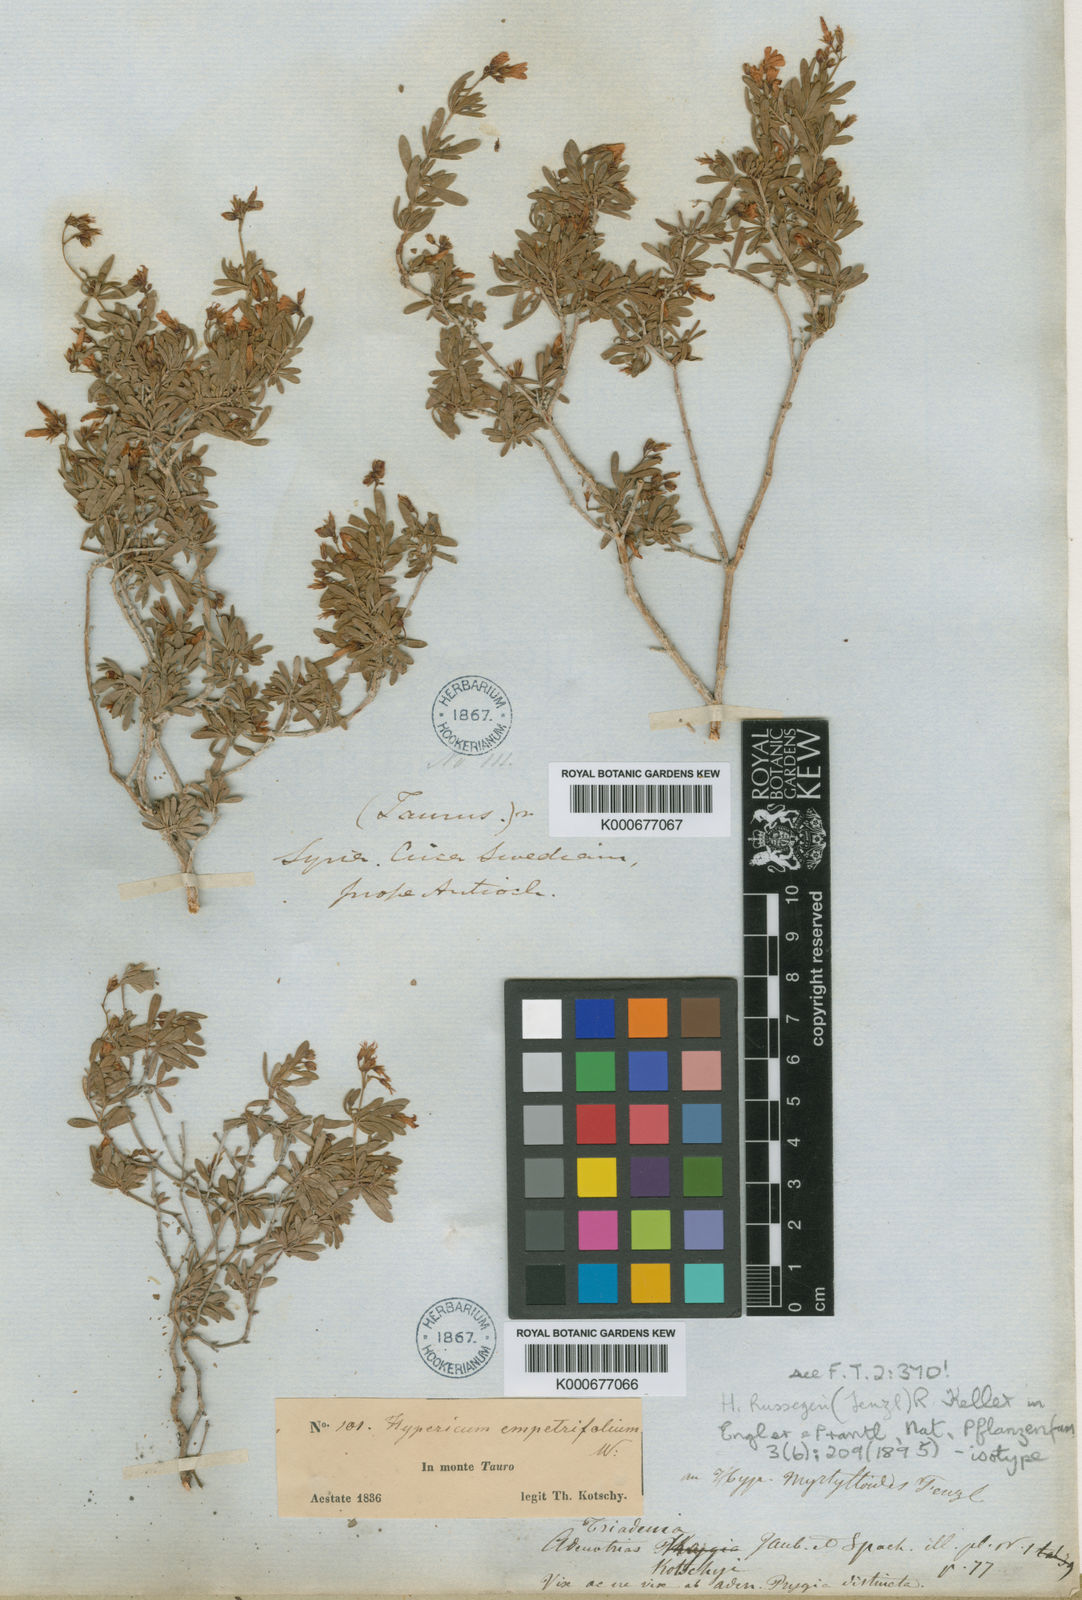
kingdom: Plantae
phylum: Tracheophyta
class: Magnoliopsida
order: Malpighiales
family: Hypericaceae
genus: Hypericum
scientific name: Hypericum russeggeri
